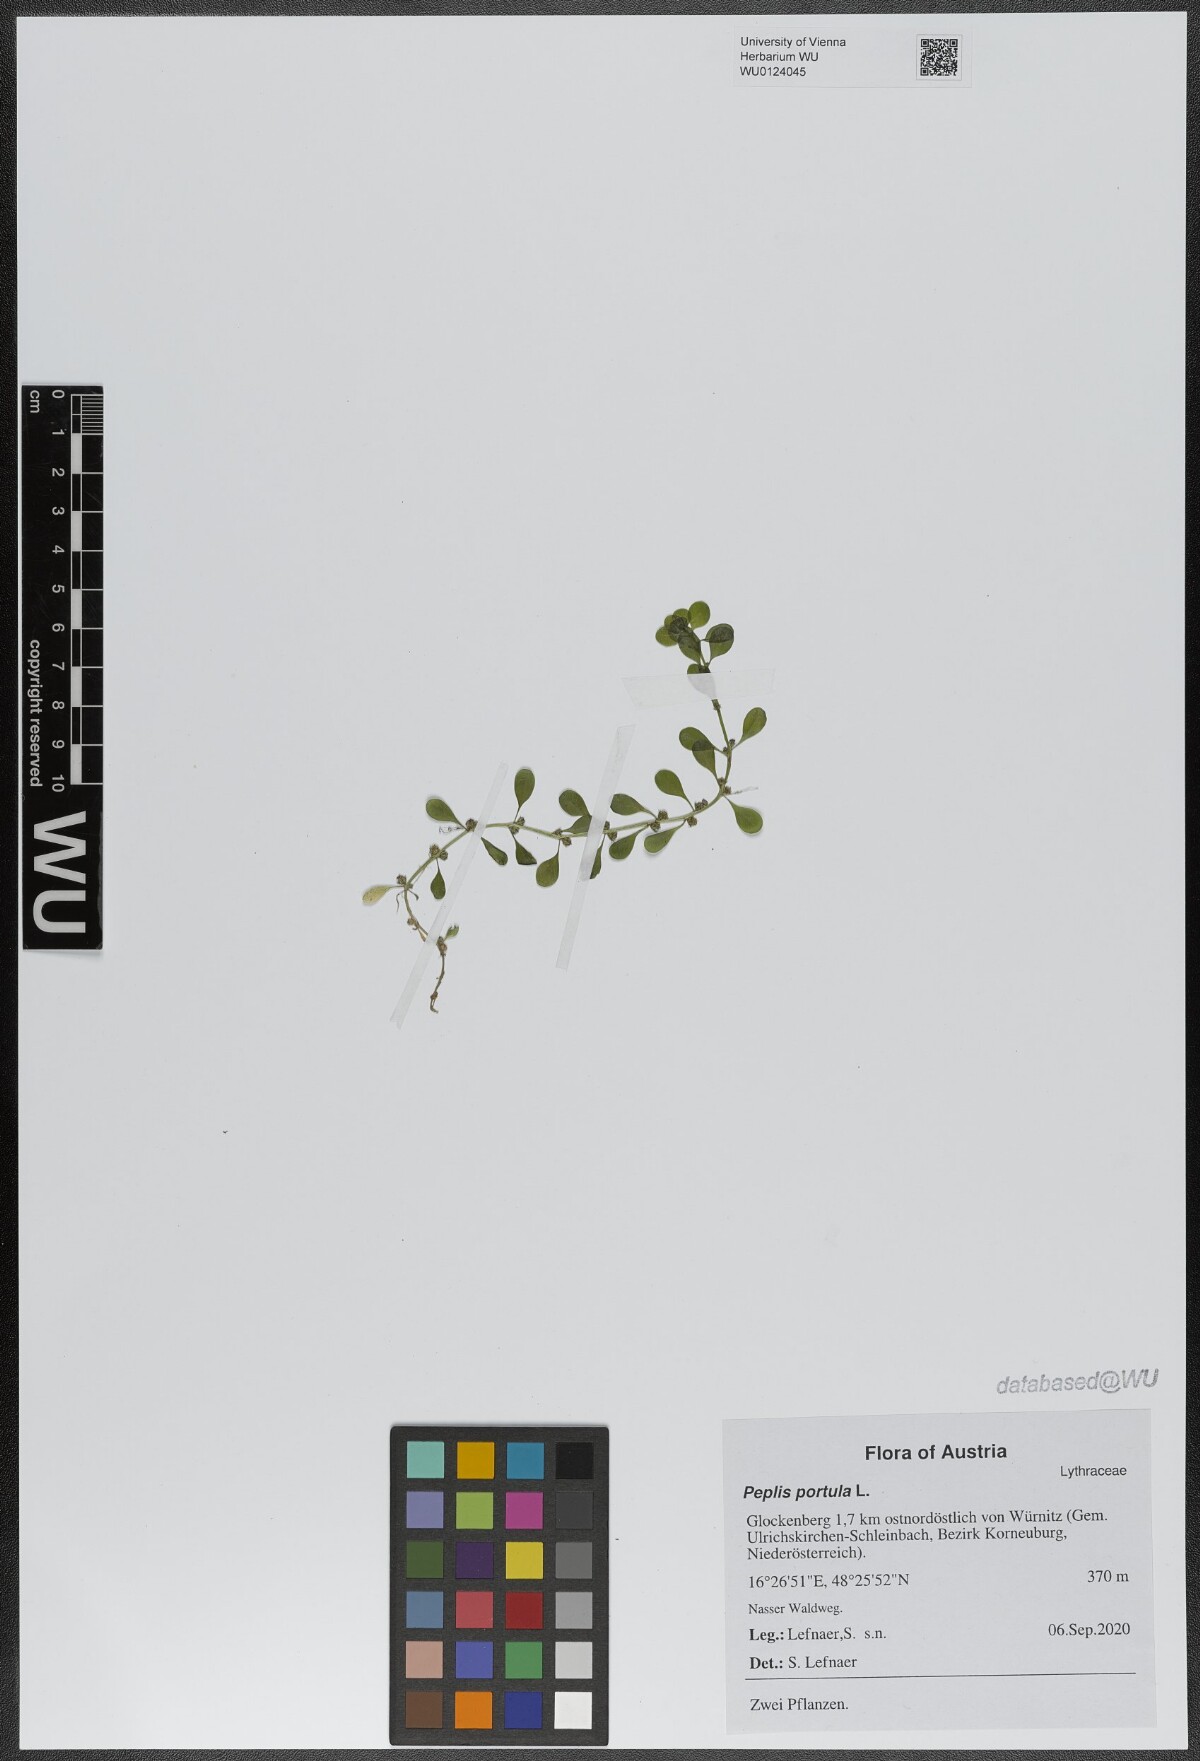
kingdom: Plantae
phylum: Tracheophyta
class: Magnoliopsida
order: Myrtales
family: Lythraceae
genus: Lythrum
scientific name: Lythrum portula
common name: Water purslane
